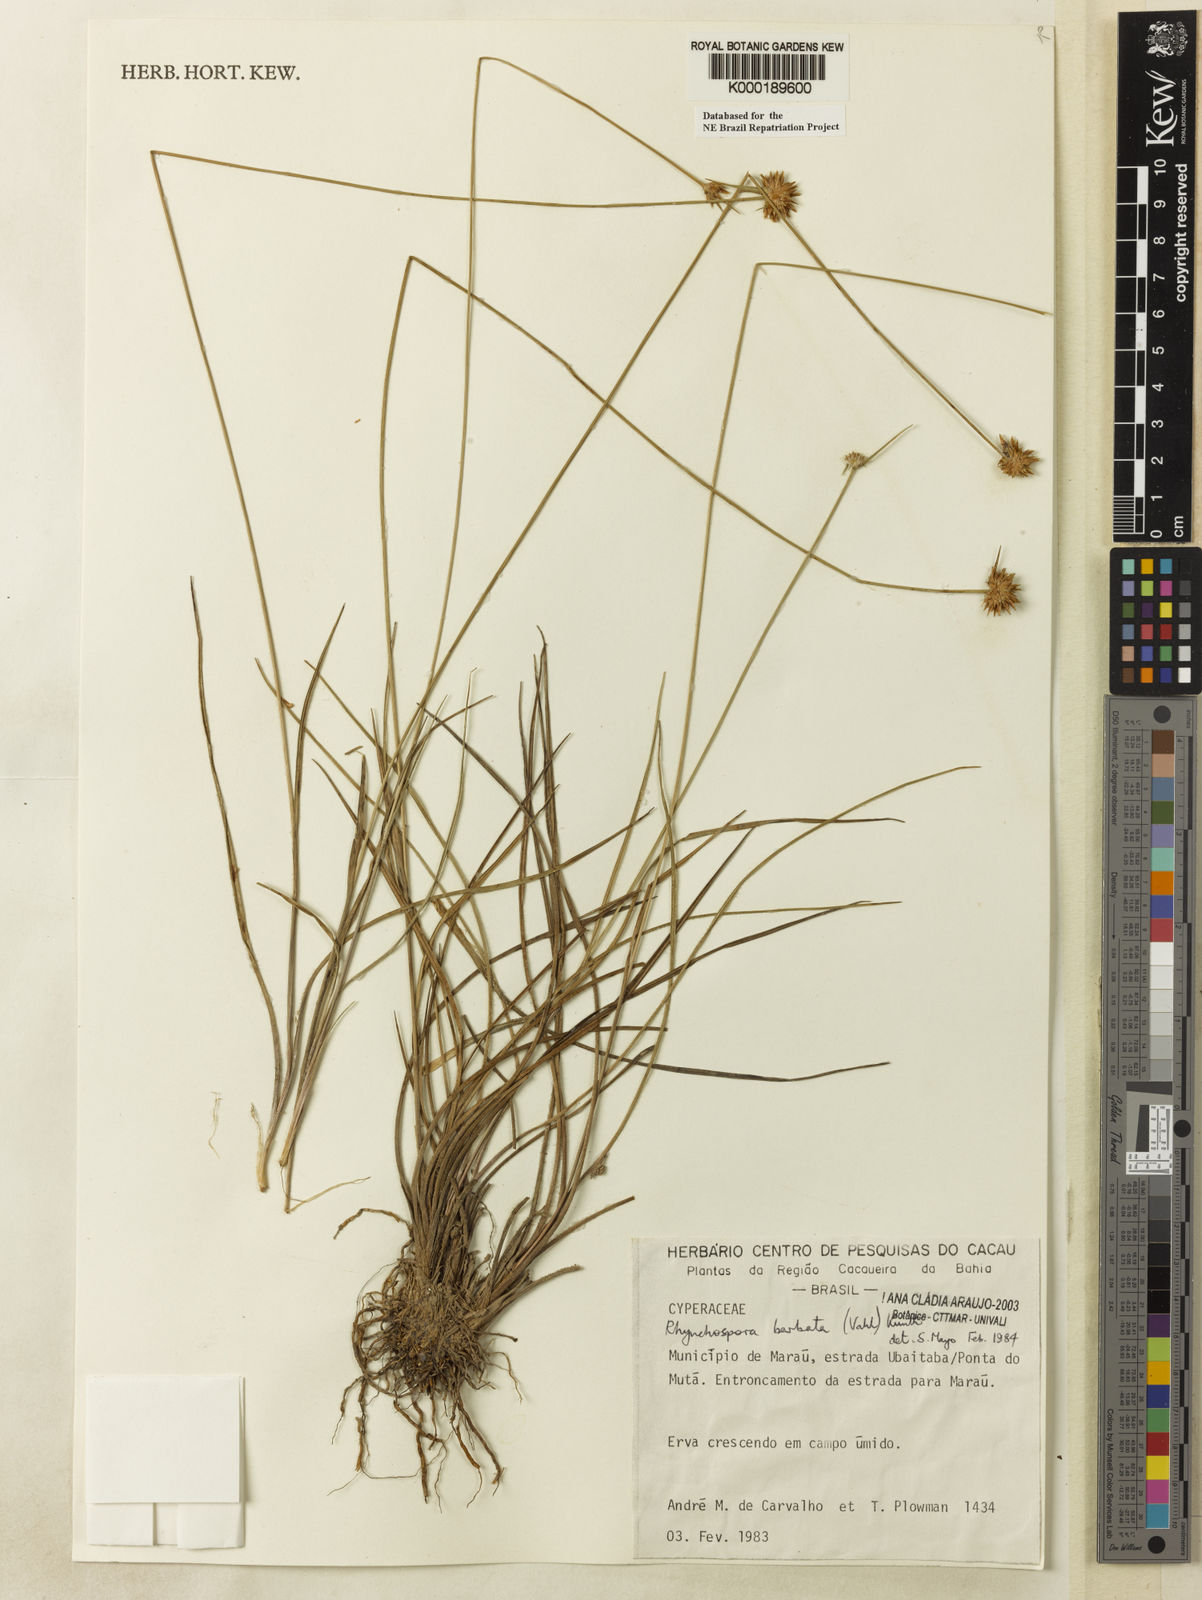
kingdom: Plantae
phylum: Tracheophyta
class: Liliopsida
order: Poales
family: Cyperaceae
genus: Rhynchospora
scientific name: Rhynchospora barbata
